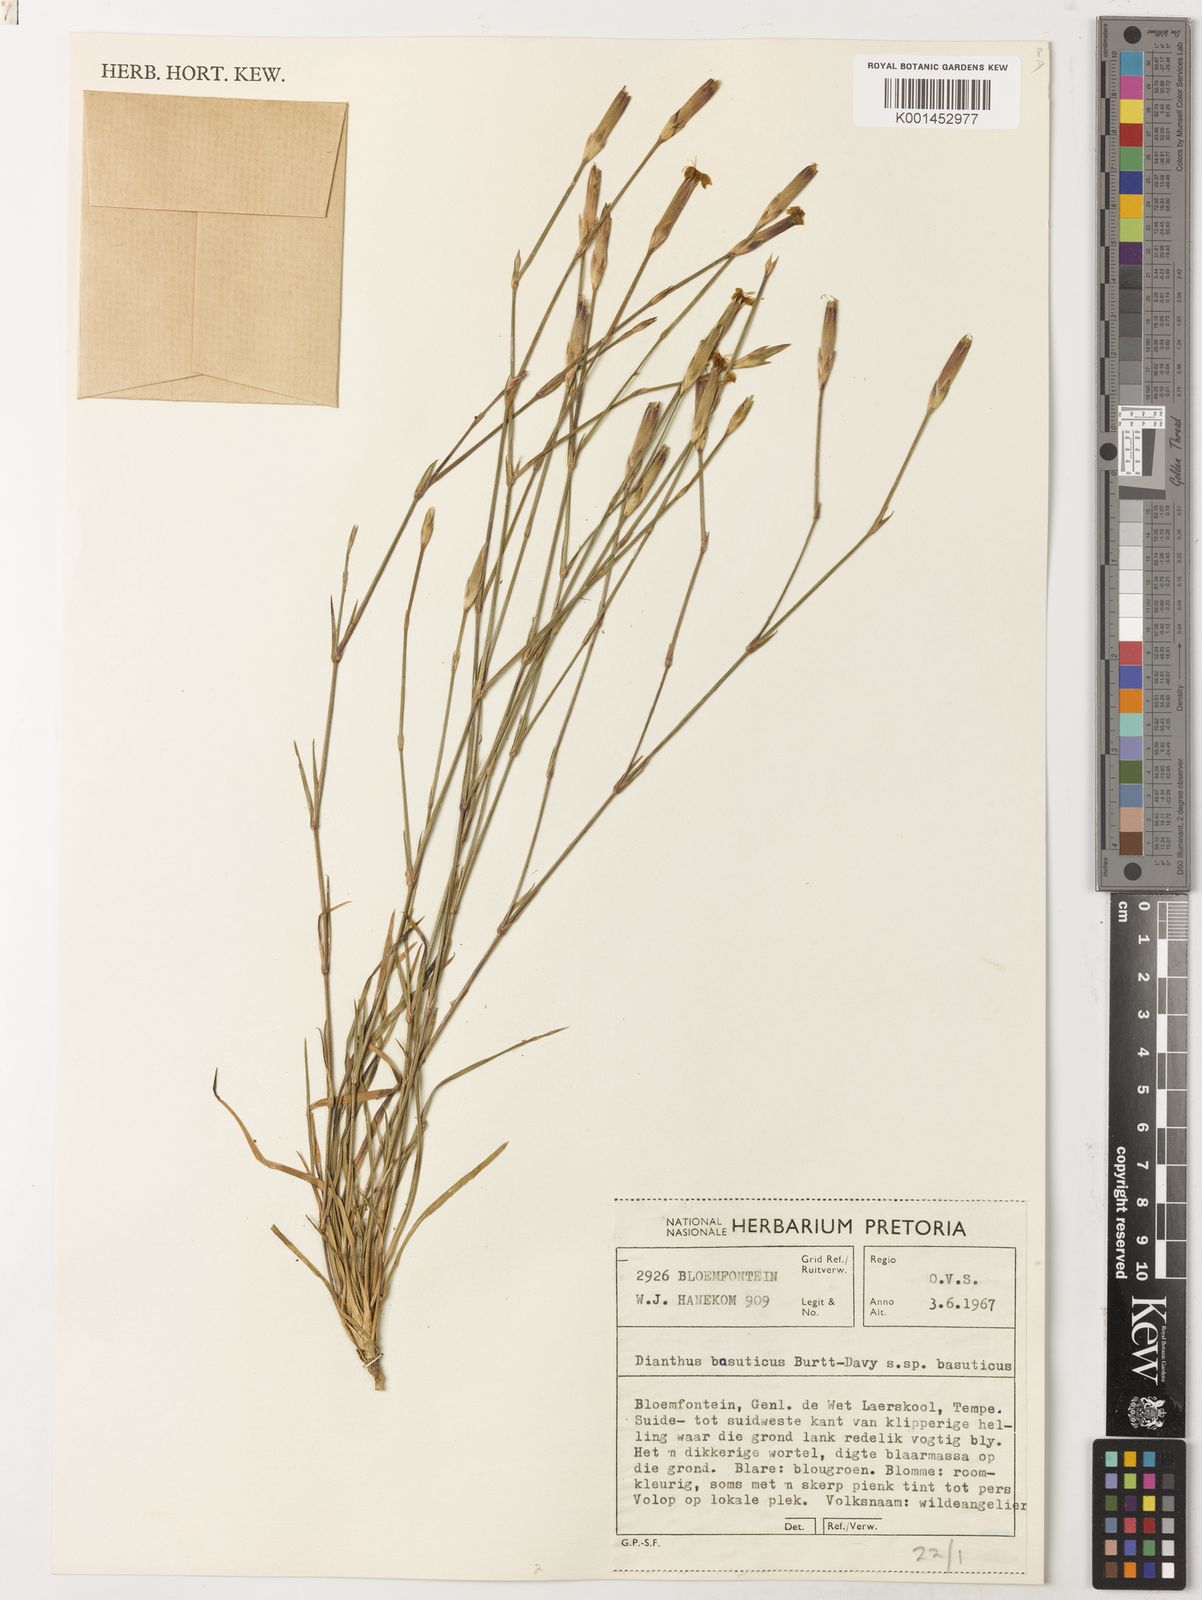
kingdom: Plantae
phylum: Tracheophyta
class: Magnoliopsida
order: Caryophyllales
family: Caryophyllaceae
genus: Dianthus
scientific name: Dianthus basuticus
